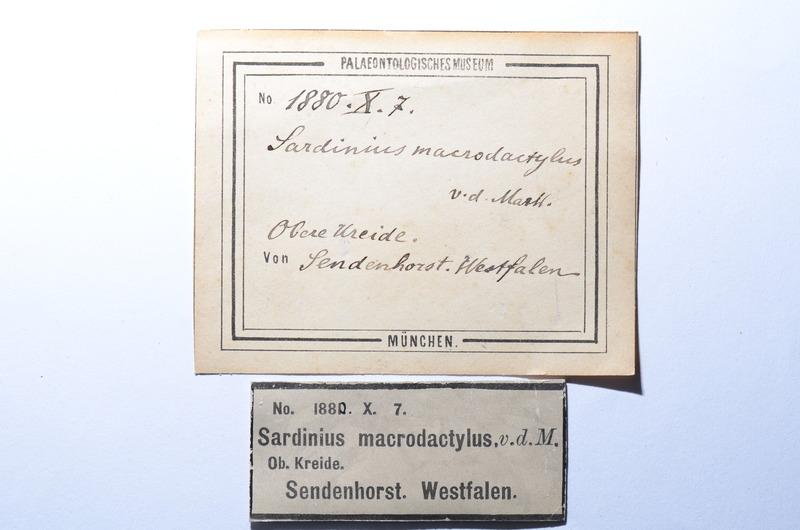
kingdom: Animalia
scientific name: Animalia
